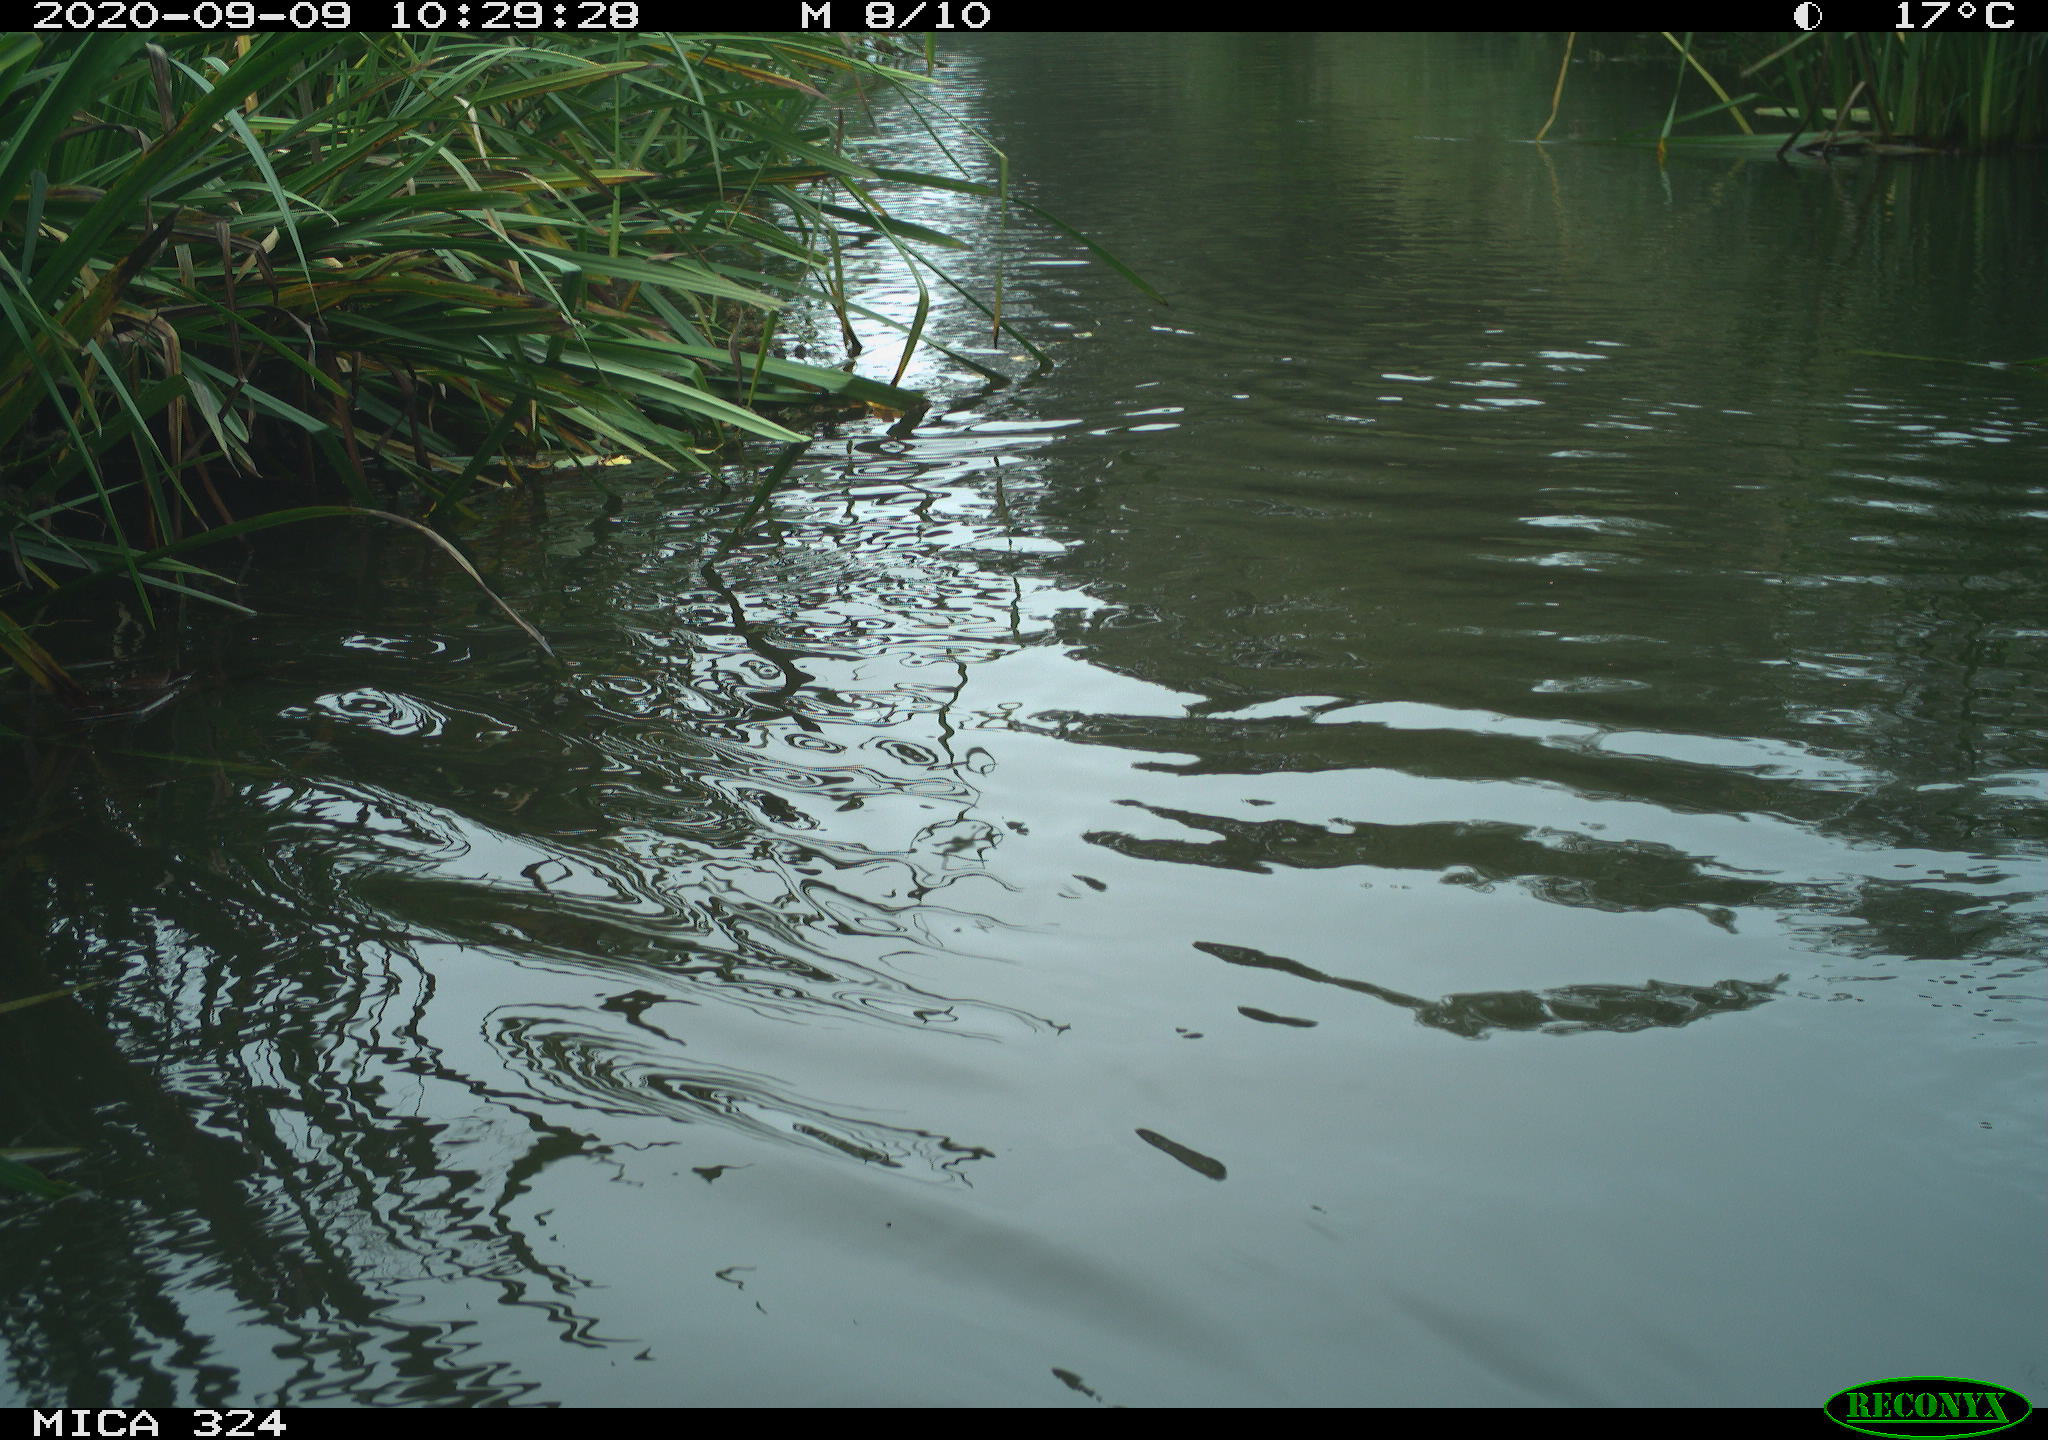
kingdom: Animalia
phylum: Chordata
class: Mammalia
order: Rodentia
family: Cricetidae
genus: Ondatra
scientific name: Ondatra zibethicus
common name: Muskrat
